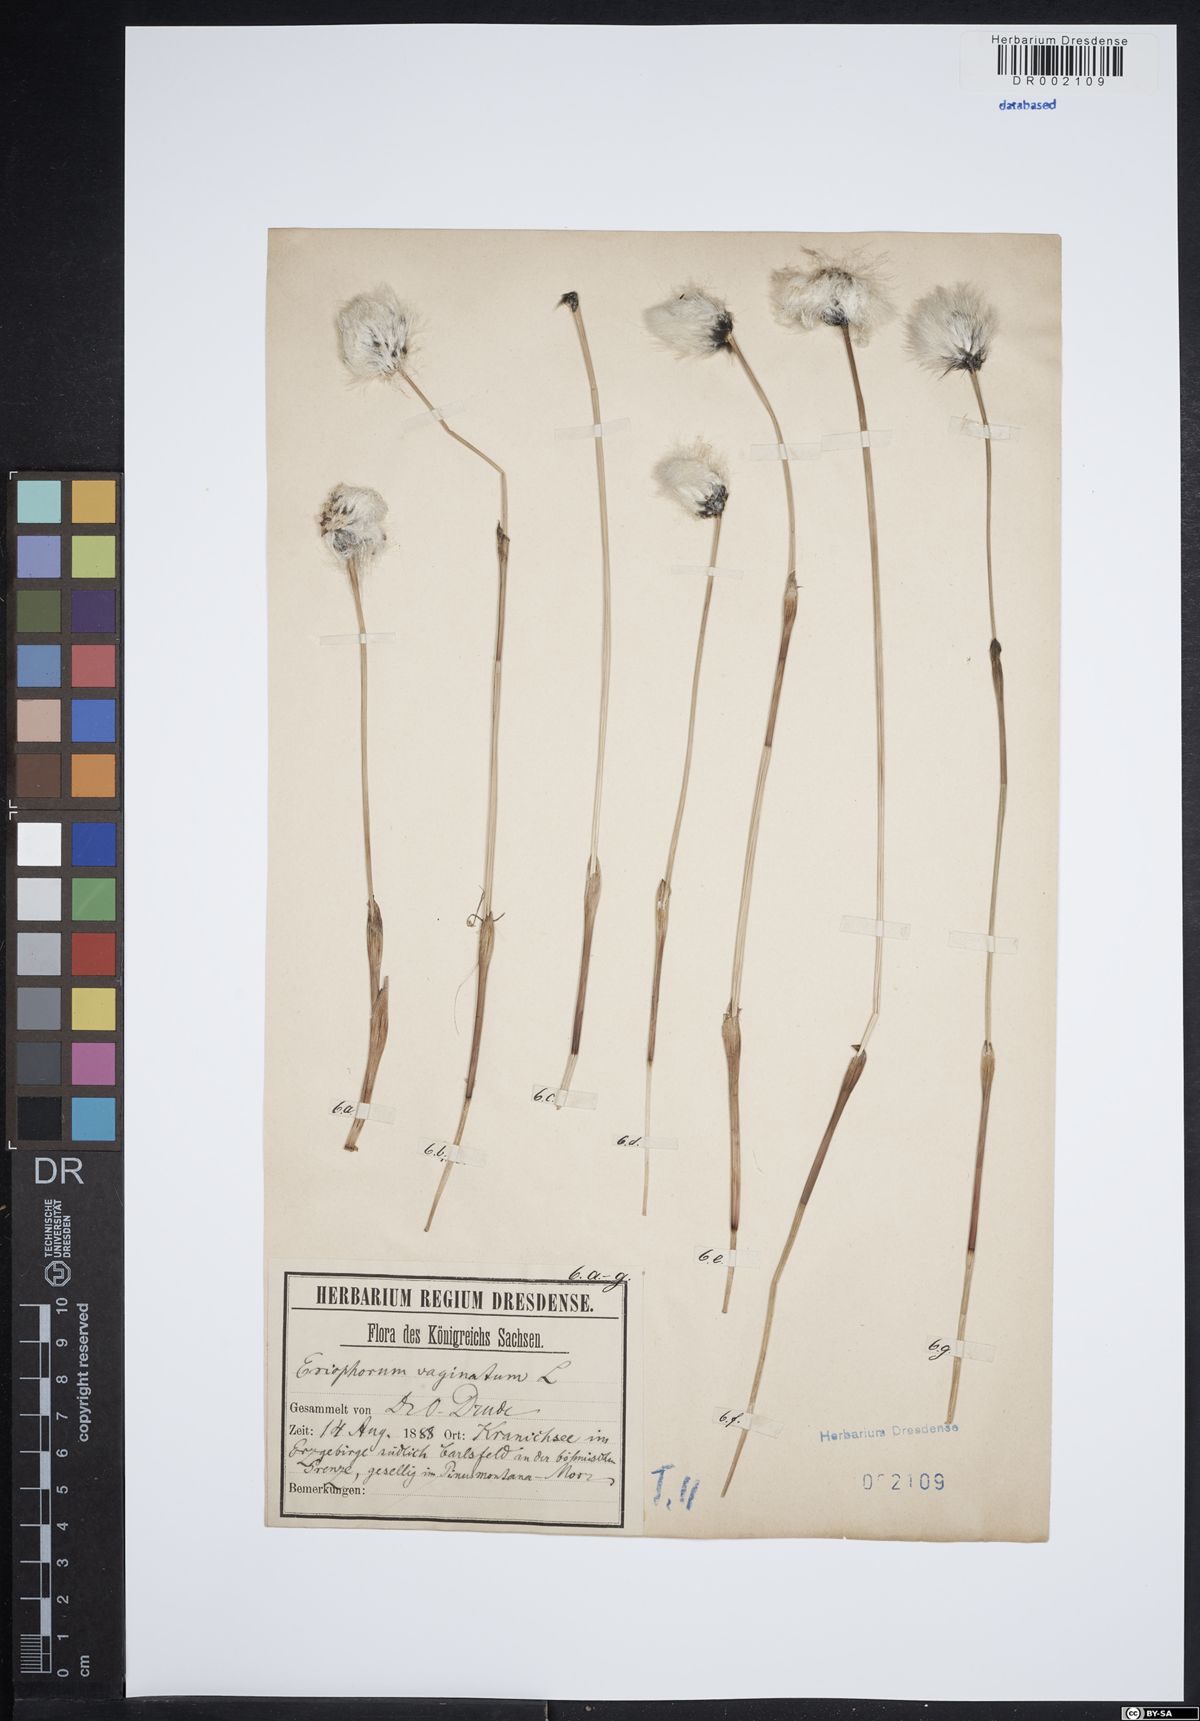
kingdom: Plantae
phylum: Tracheophyta
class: Liliopsida
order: Poales
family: Cyperaceae
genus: Eriophorum
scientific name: Eriophorum vaginatum
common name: Hare's-tail cottongrass
